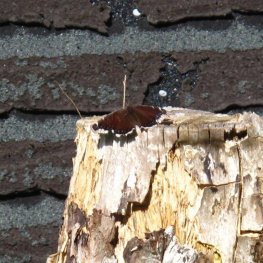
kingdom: Animalia
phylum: Arthropoda
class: Insecta
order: Lepidoptera
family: Nymphalidae
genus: Nymphalis
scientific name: Nymphalis antiopa
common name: Mourning Cloak
